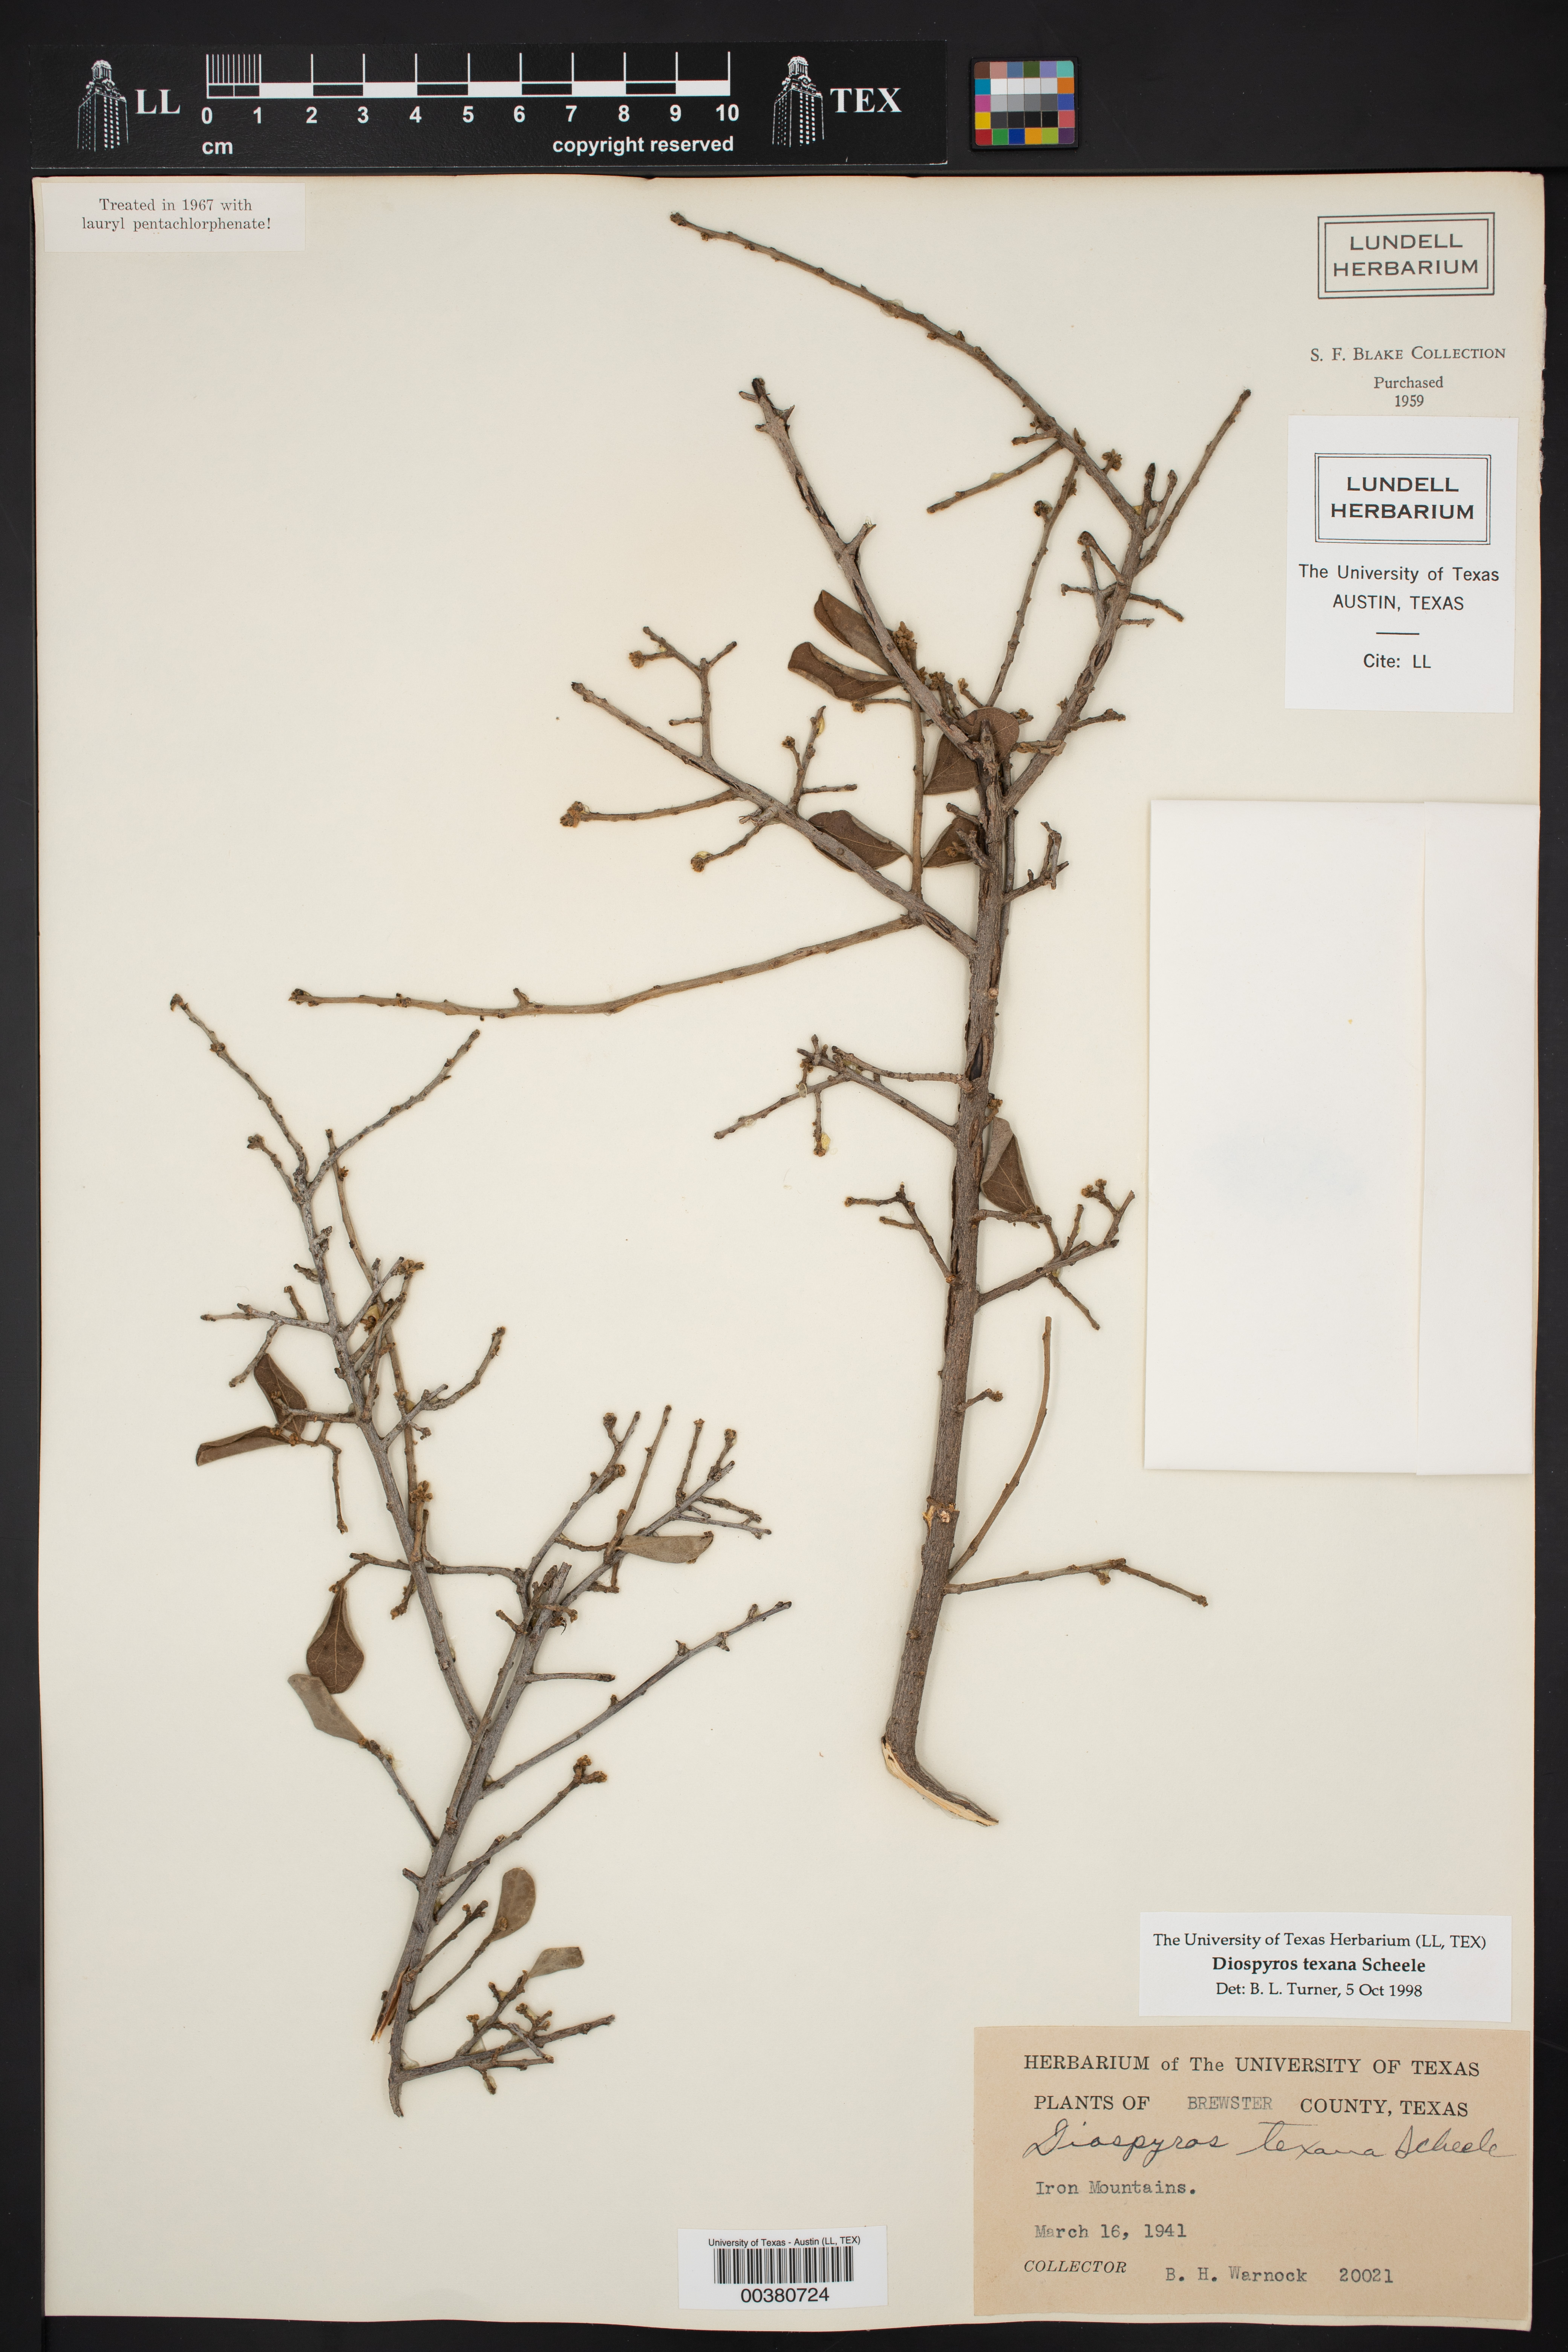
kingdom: Plantae
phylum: Tracheophyta
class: Magnoliopsida
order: Ericales
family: Ebenaceae
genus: Diospyros
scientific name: Diospyros texana
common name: Texas persimmon
